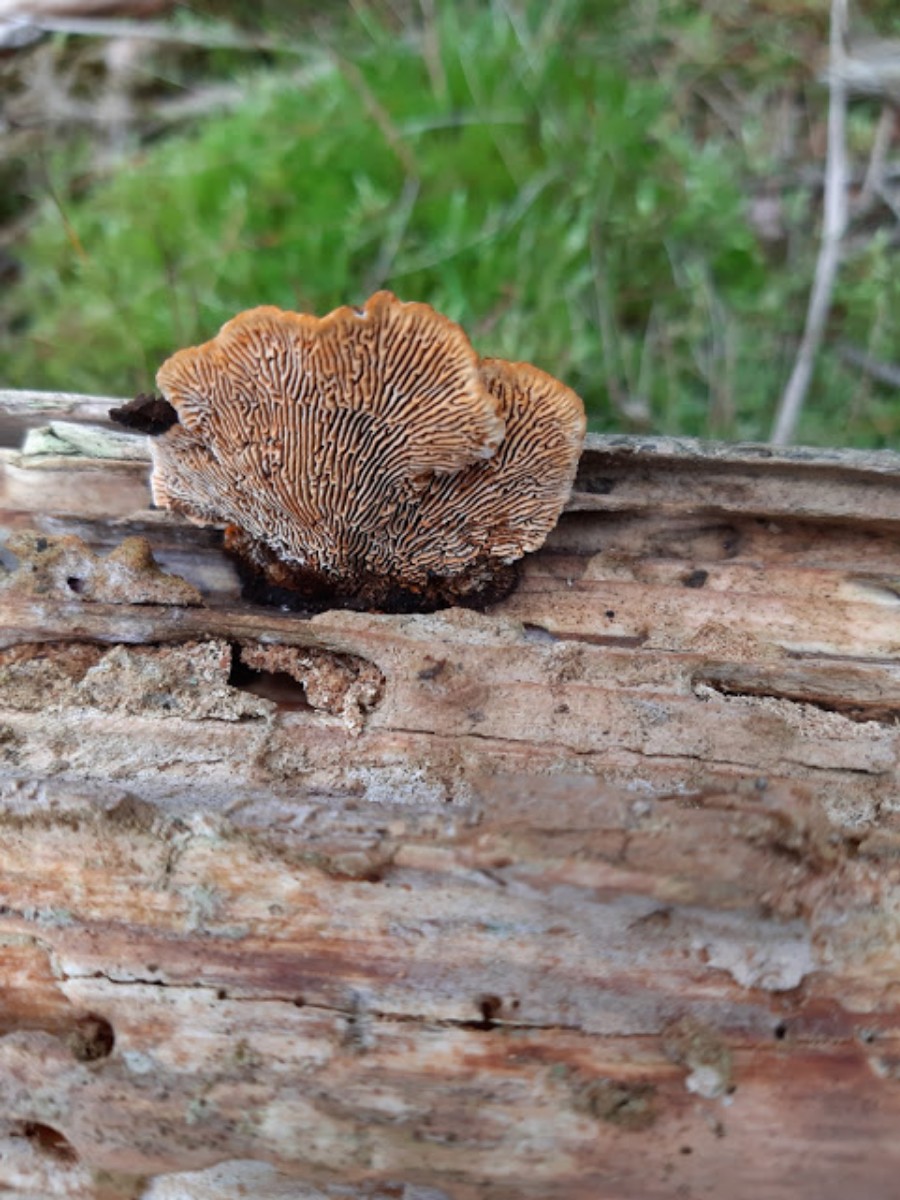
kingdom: Fungi
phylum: Basidiomycota
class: Agaricomycetes
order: Gloeophyllales
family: Gloeophyllaceae
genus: Gloeophyllum
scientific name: Gloeophyllum sepiarium
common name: fyrre-korkhat
